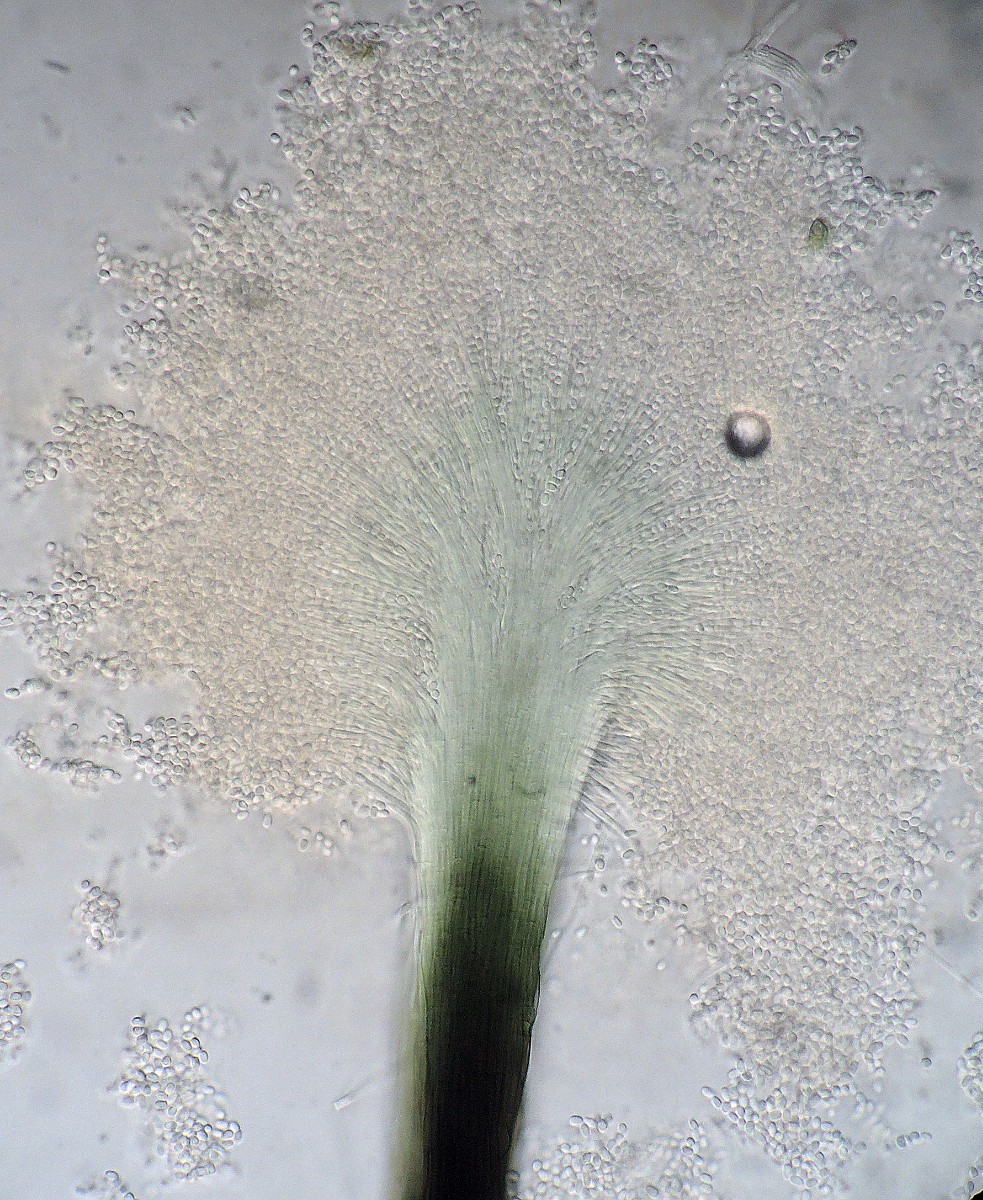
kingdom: Fungi
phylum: Ascomycota
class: Leotiomycetes
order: Leotiales
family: Tympanidaceae
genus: Dendrostilbella
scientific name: Dendrostilbella smaragdina
